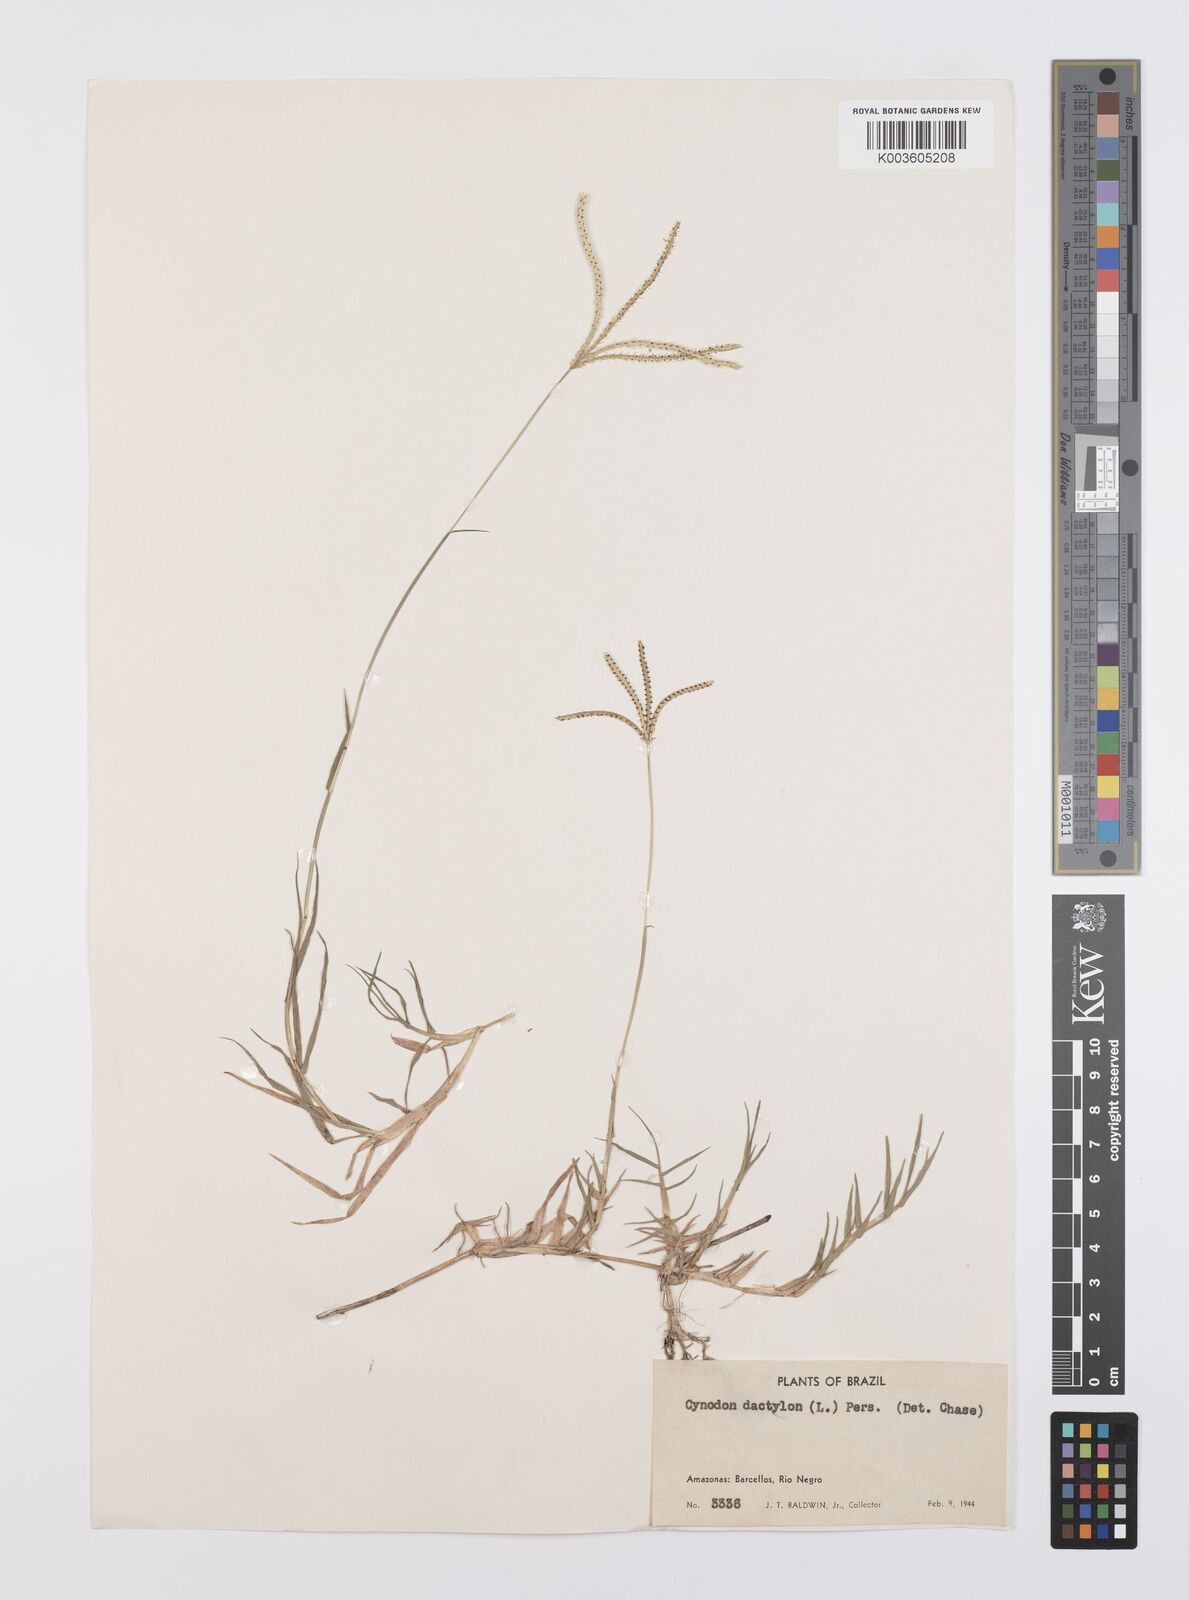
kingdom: Plantae
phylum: Tracheophyta
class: Liliopsida
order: Poales
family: Poaceae
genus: Cynodon
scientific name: Cynodon dactylon
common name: Bermuda grass
